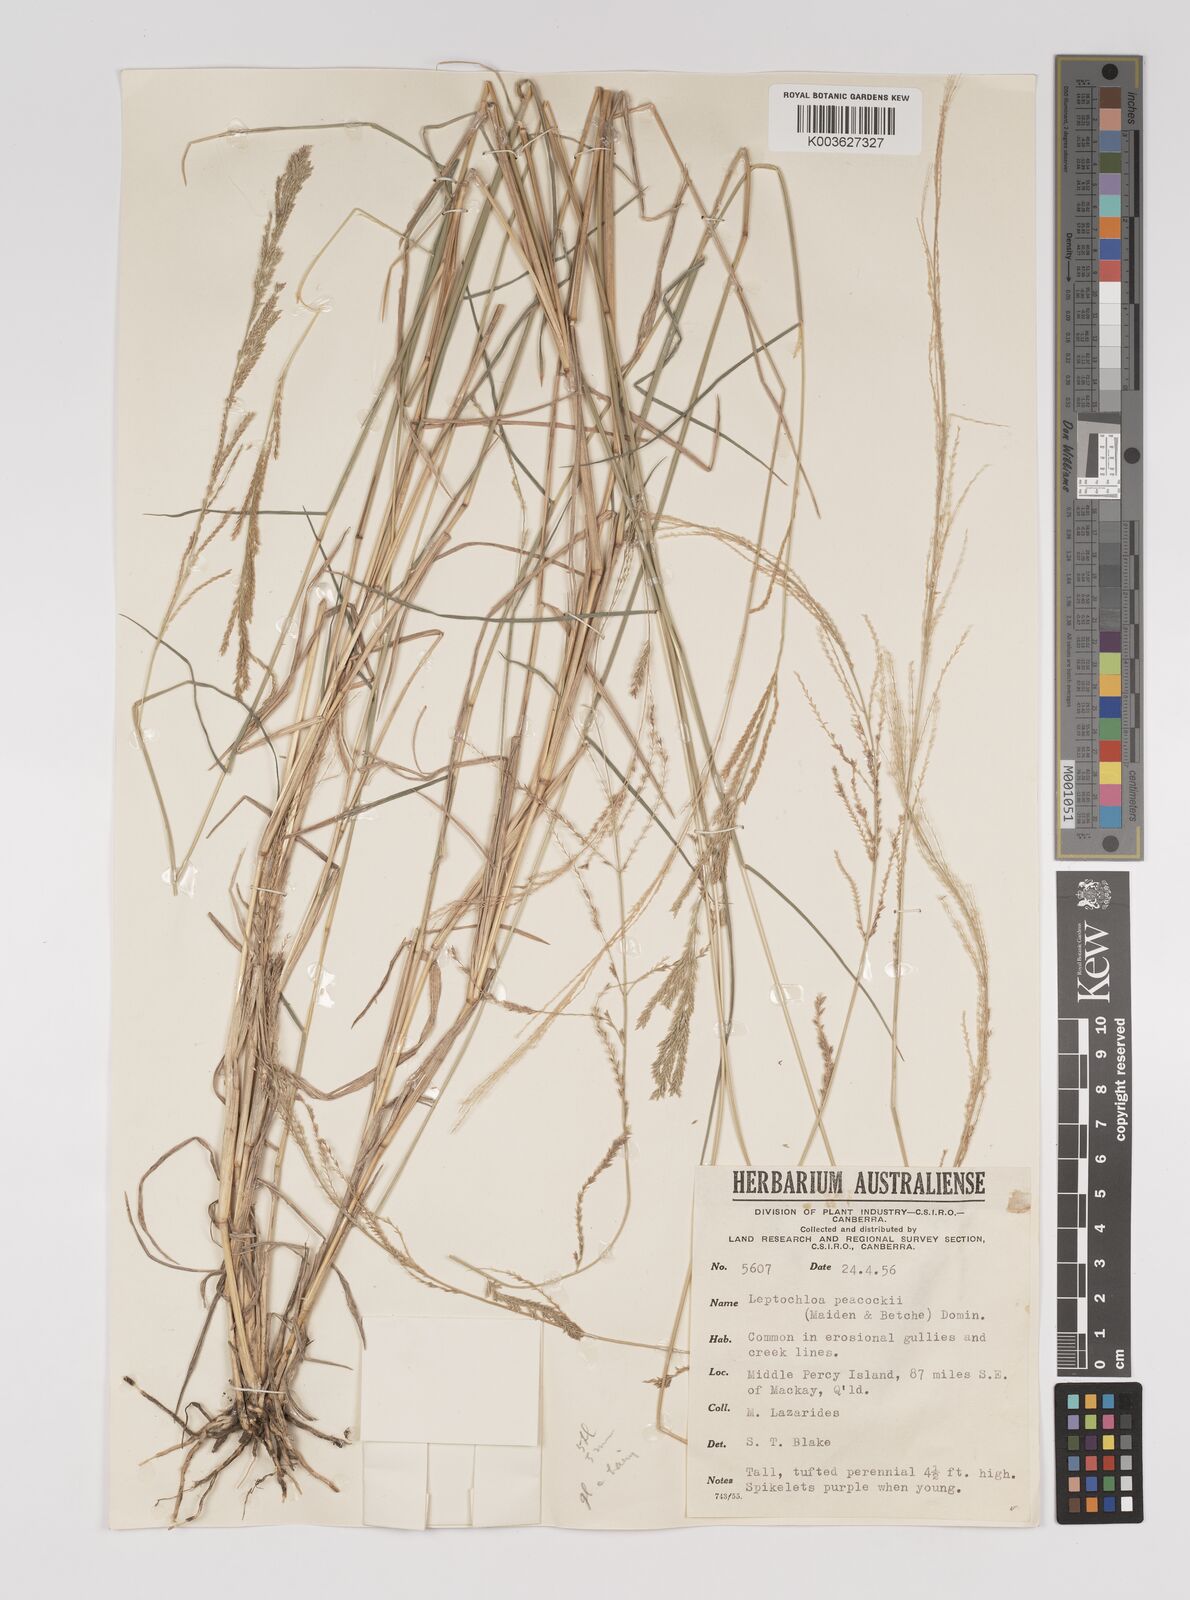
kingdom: Plantae
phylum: Tracheophyta
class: Liliopsida
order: Poales
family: Poaceae
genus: Leptochloa
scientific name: Leptochloa decipiens
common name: Australian sprangletop
